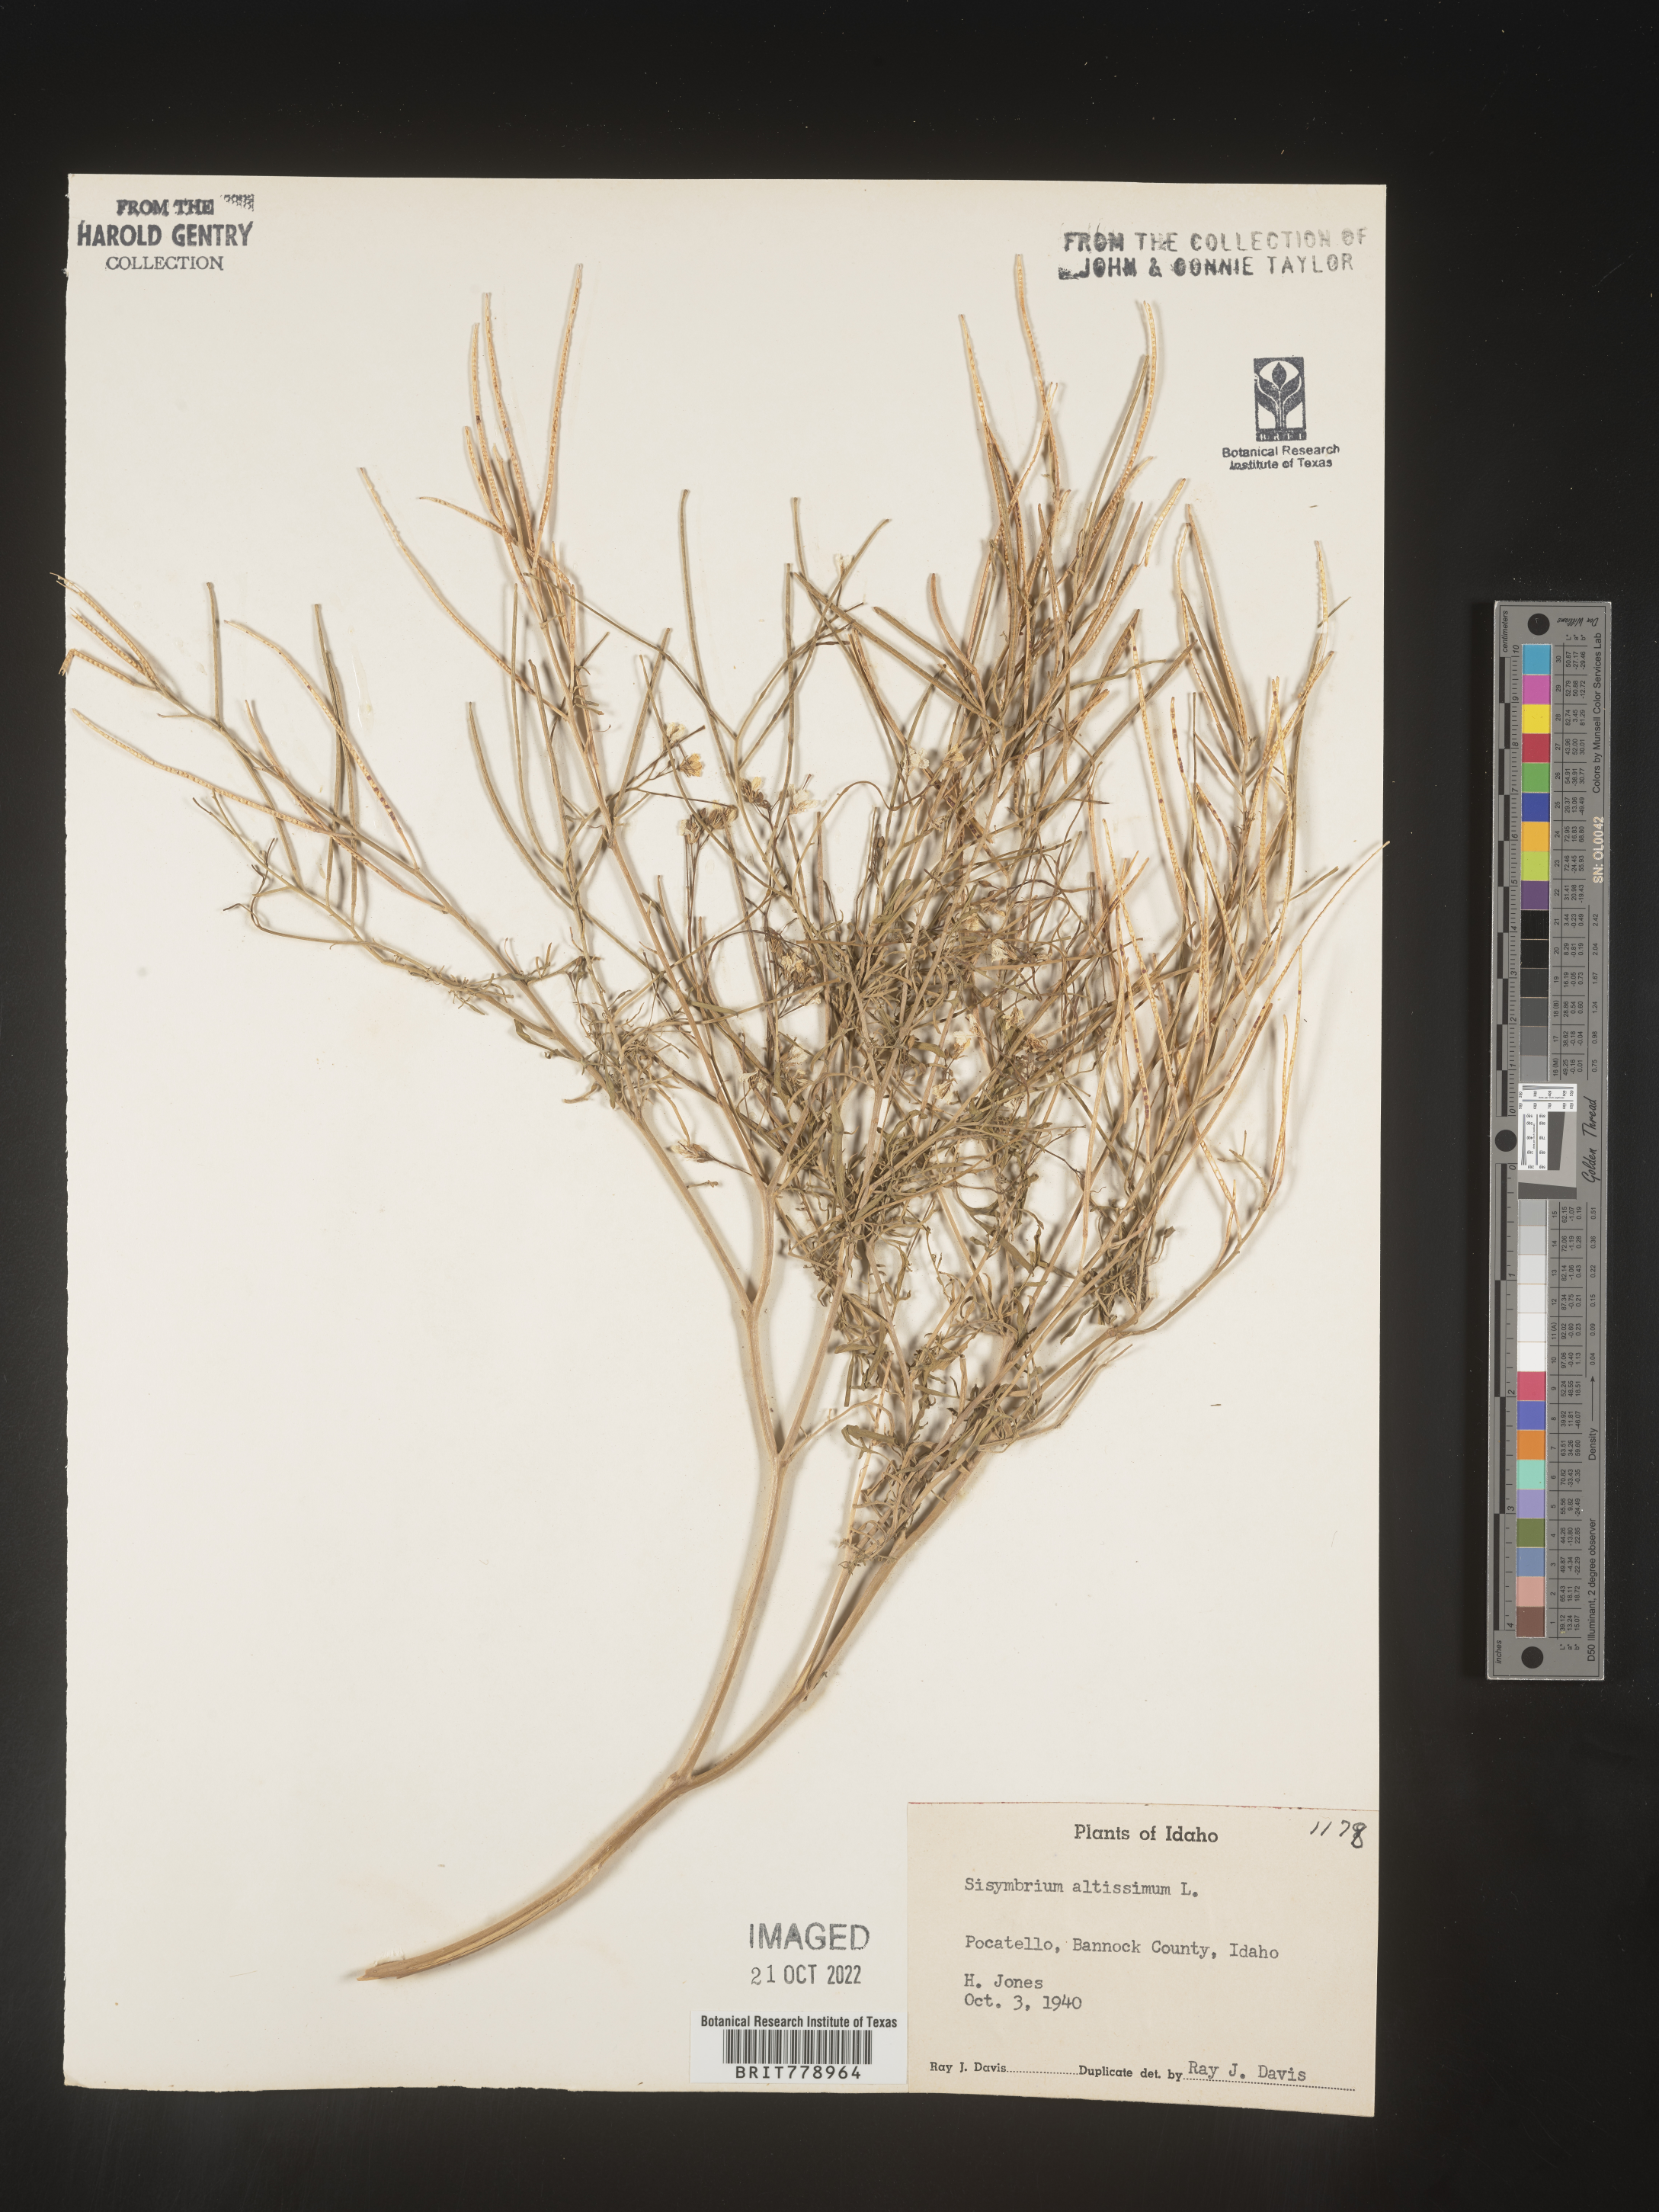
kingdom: Plantae
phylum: Tracheophyta
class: Magnoliopsida
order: Brassicales
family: Brassicaceae
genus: Sisymbrium
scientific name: Sisymbrium altissimum
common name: Tall rocket
